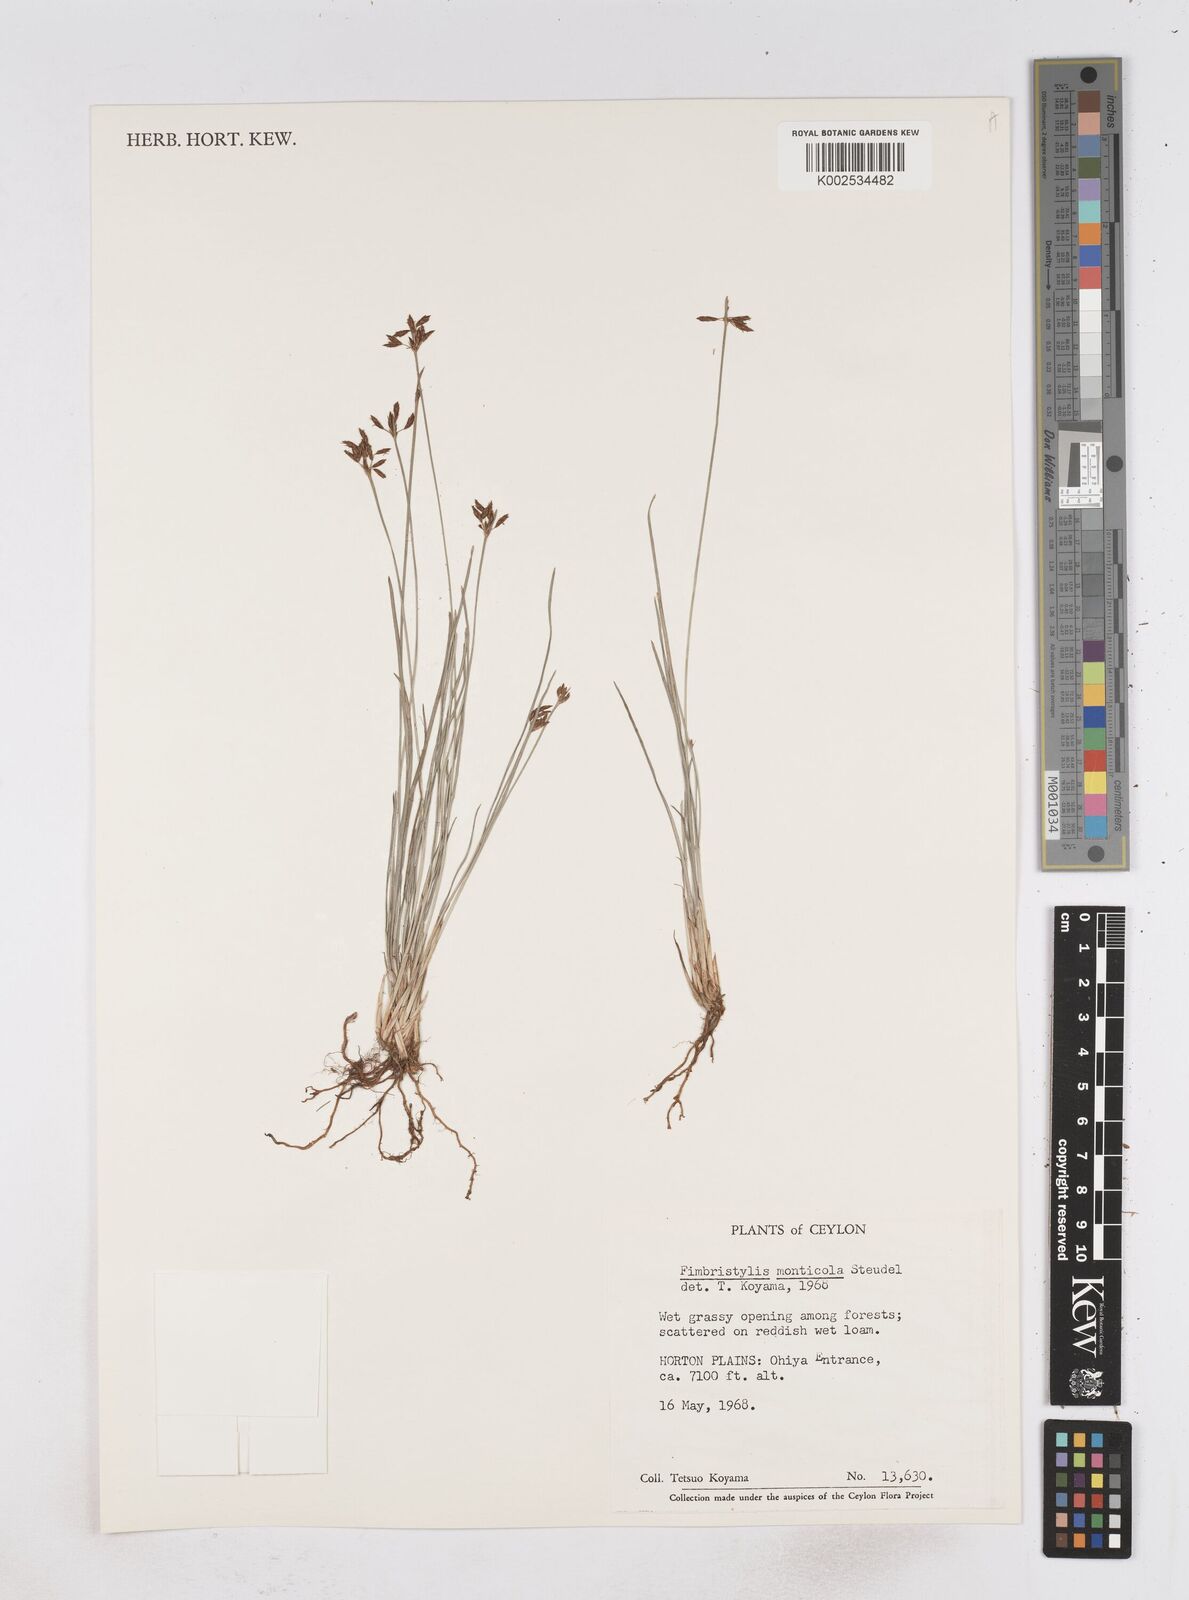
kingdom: Plantae
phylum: Tracheophyta
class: Liliopsida
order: Poales
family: Cyperaceae
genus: Fimbristylis
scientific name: Fimbristylis monticola
